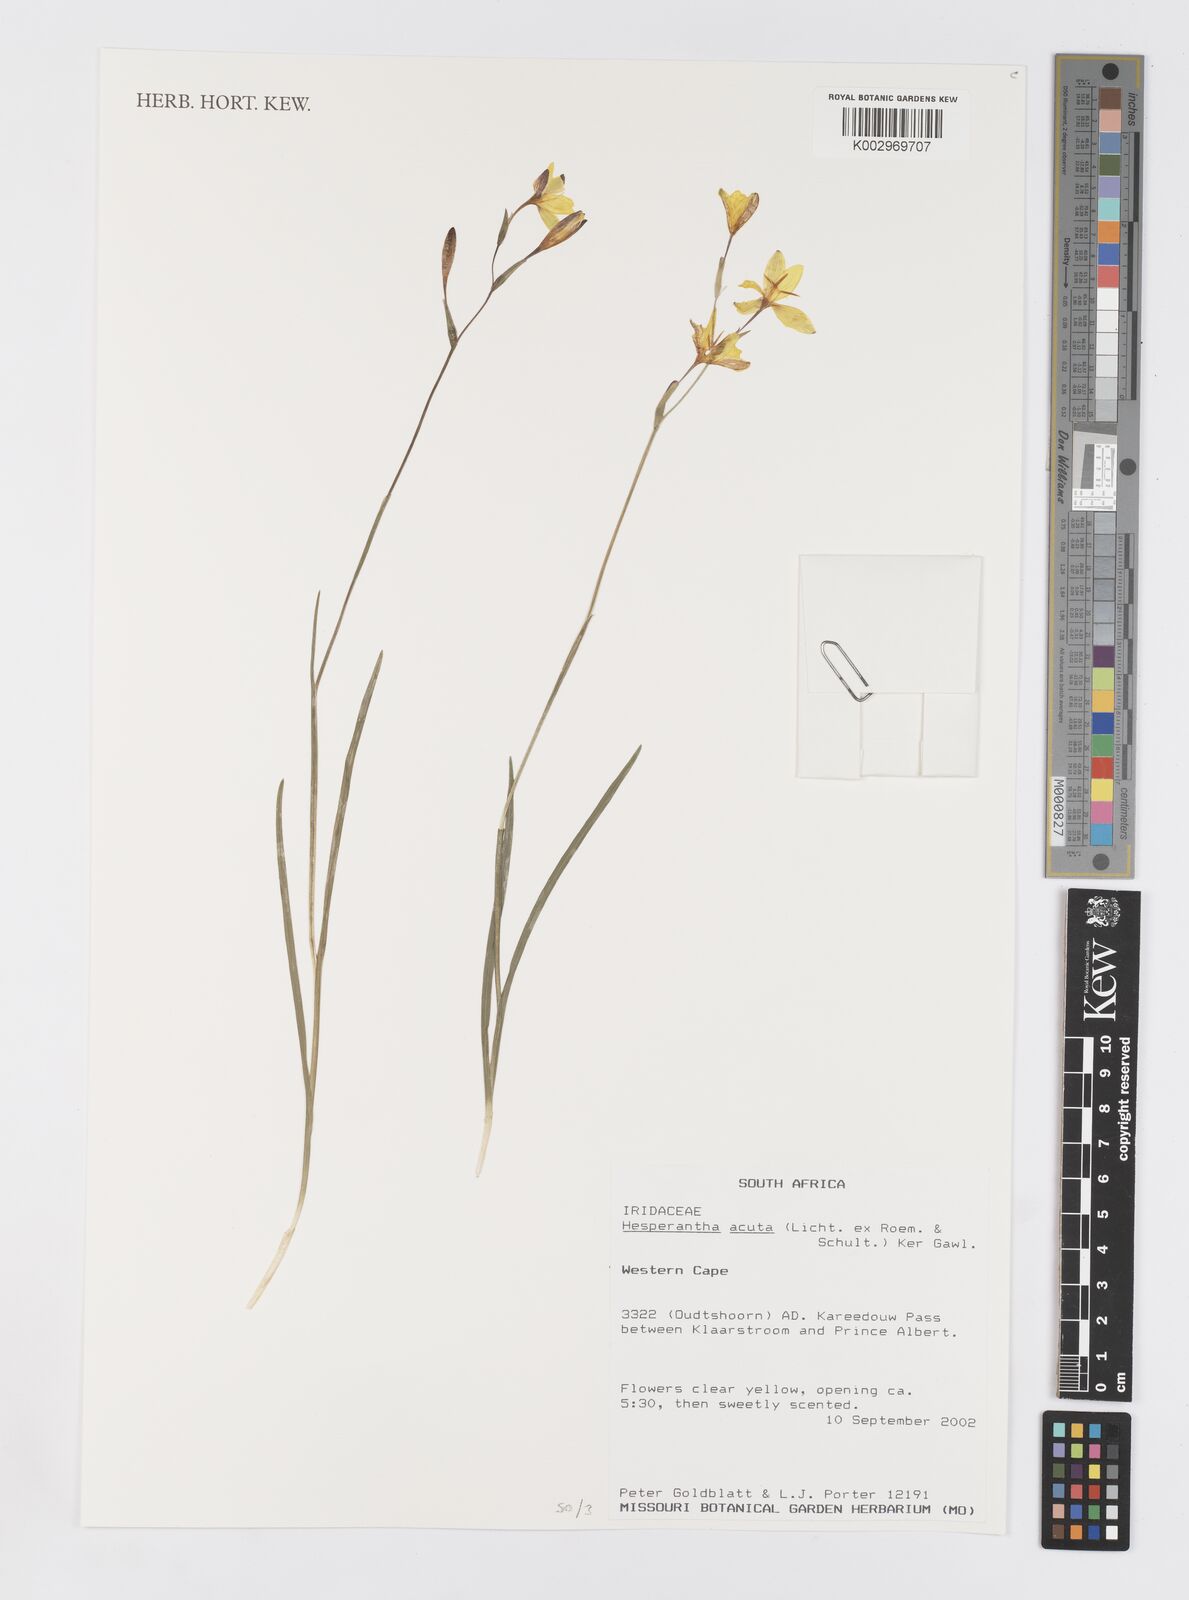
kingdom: Plantae
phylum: Tracheophyta
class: Liliopsida
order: Asparagales
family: Iridaceae
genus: Hesperantha
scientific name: Hesperantha acuta
